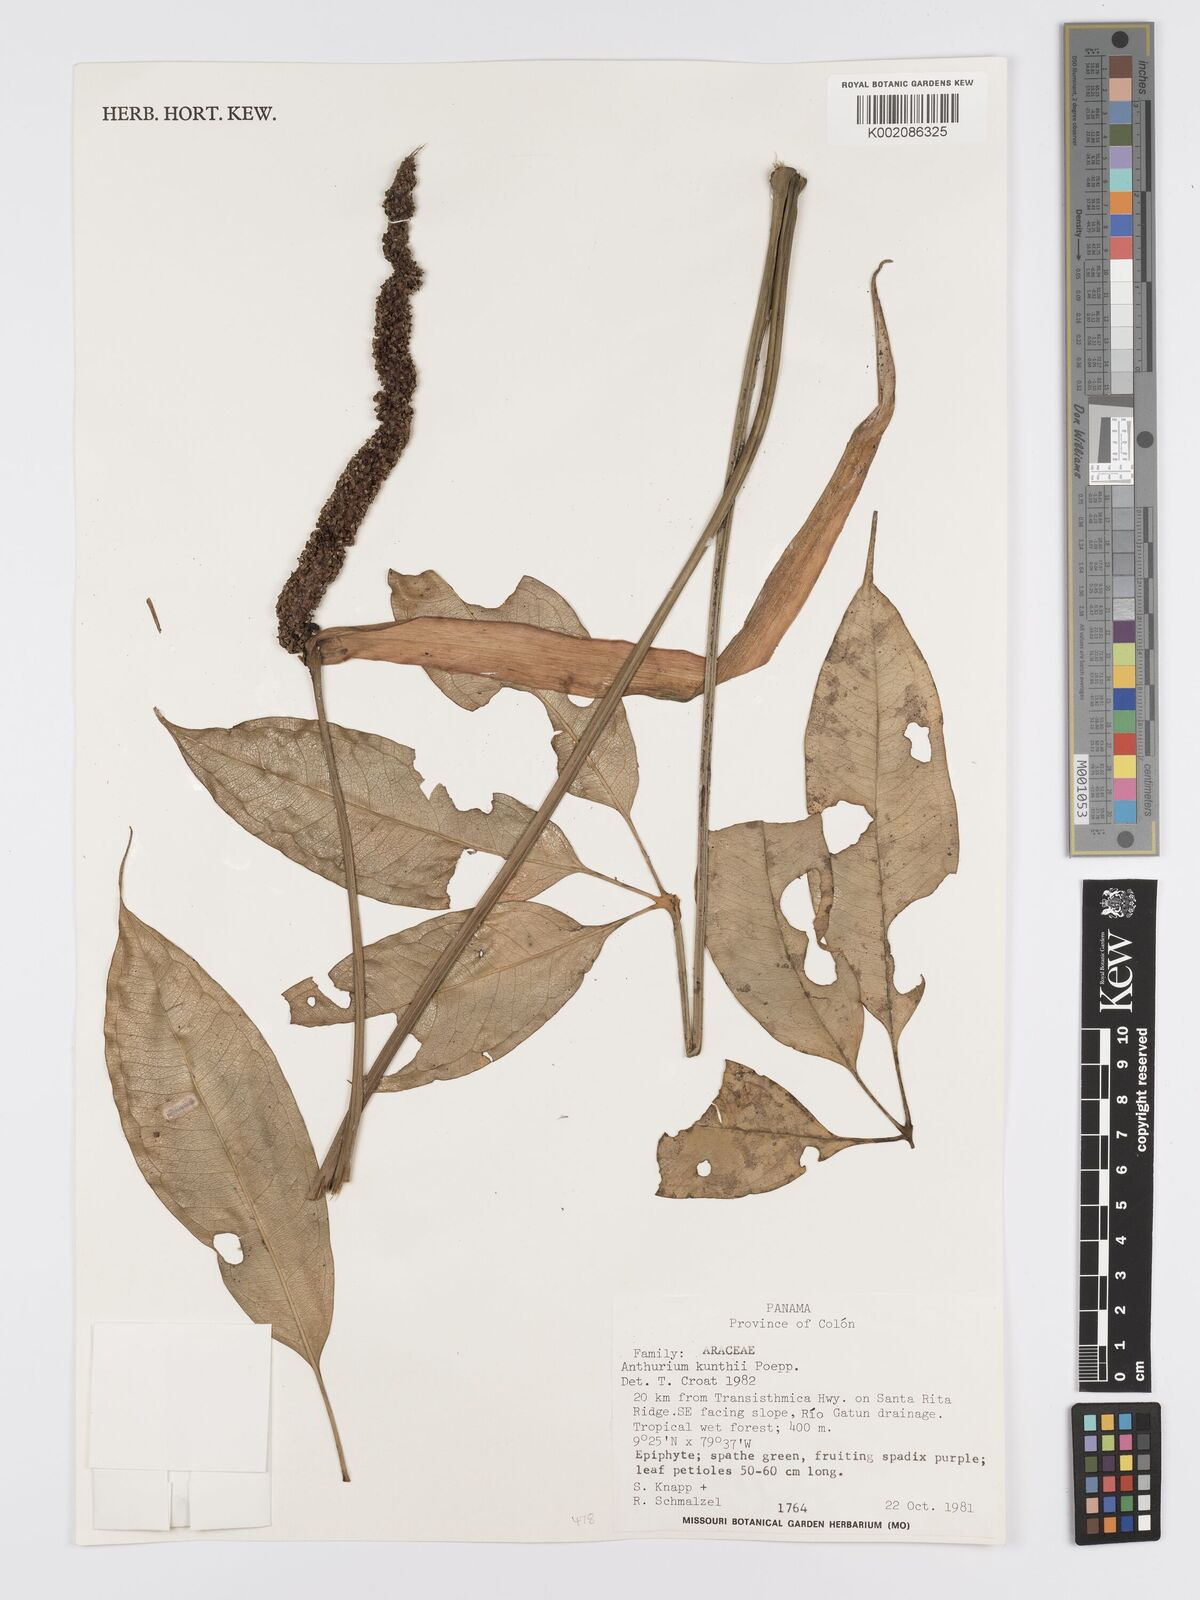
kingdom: Plantae
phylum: Tracheophyta
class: Liliopsida
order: Alismatales
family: Araceae
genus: Anthurium
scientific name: Anthurium kunthii
